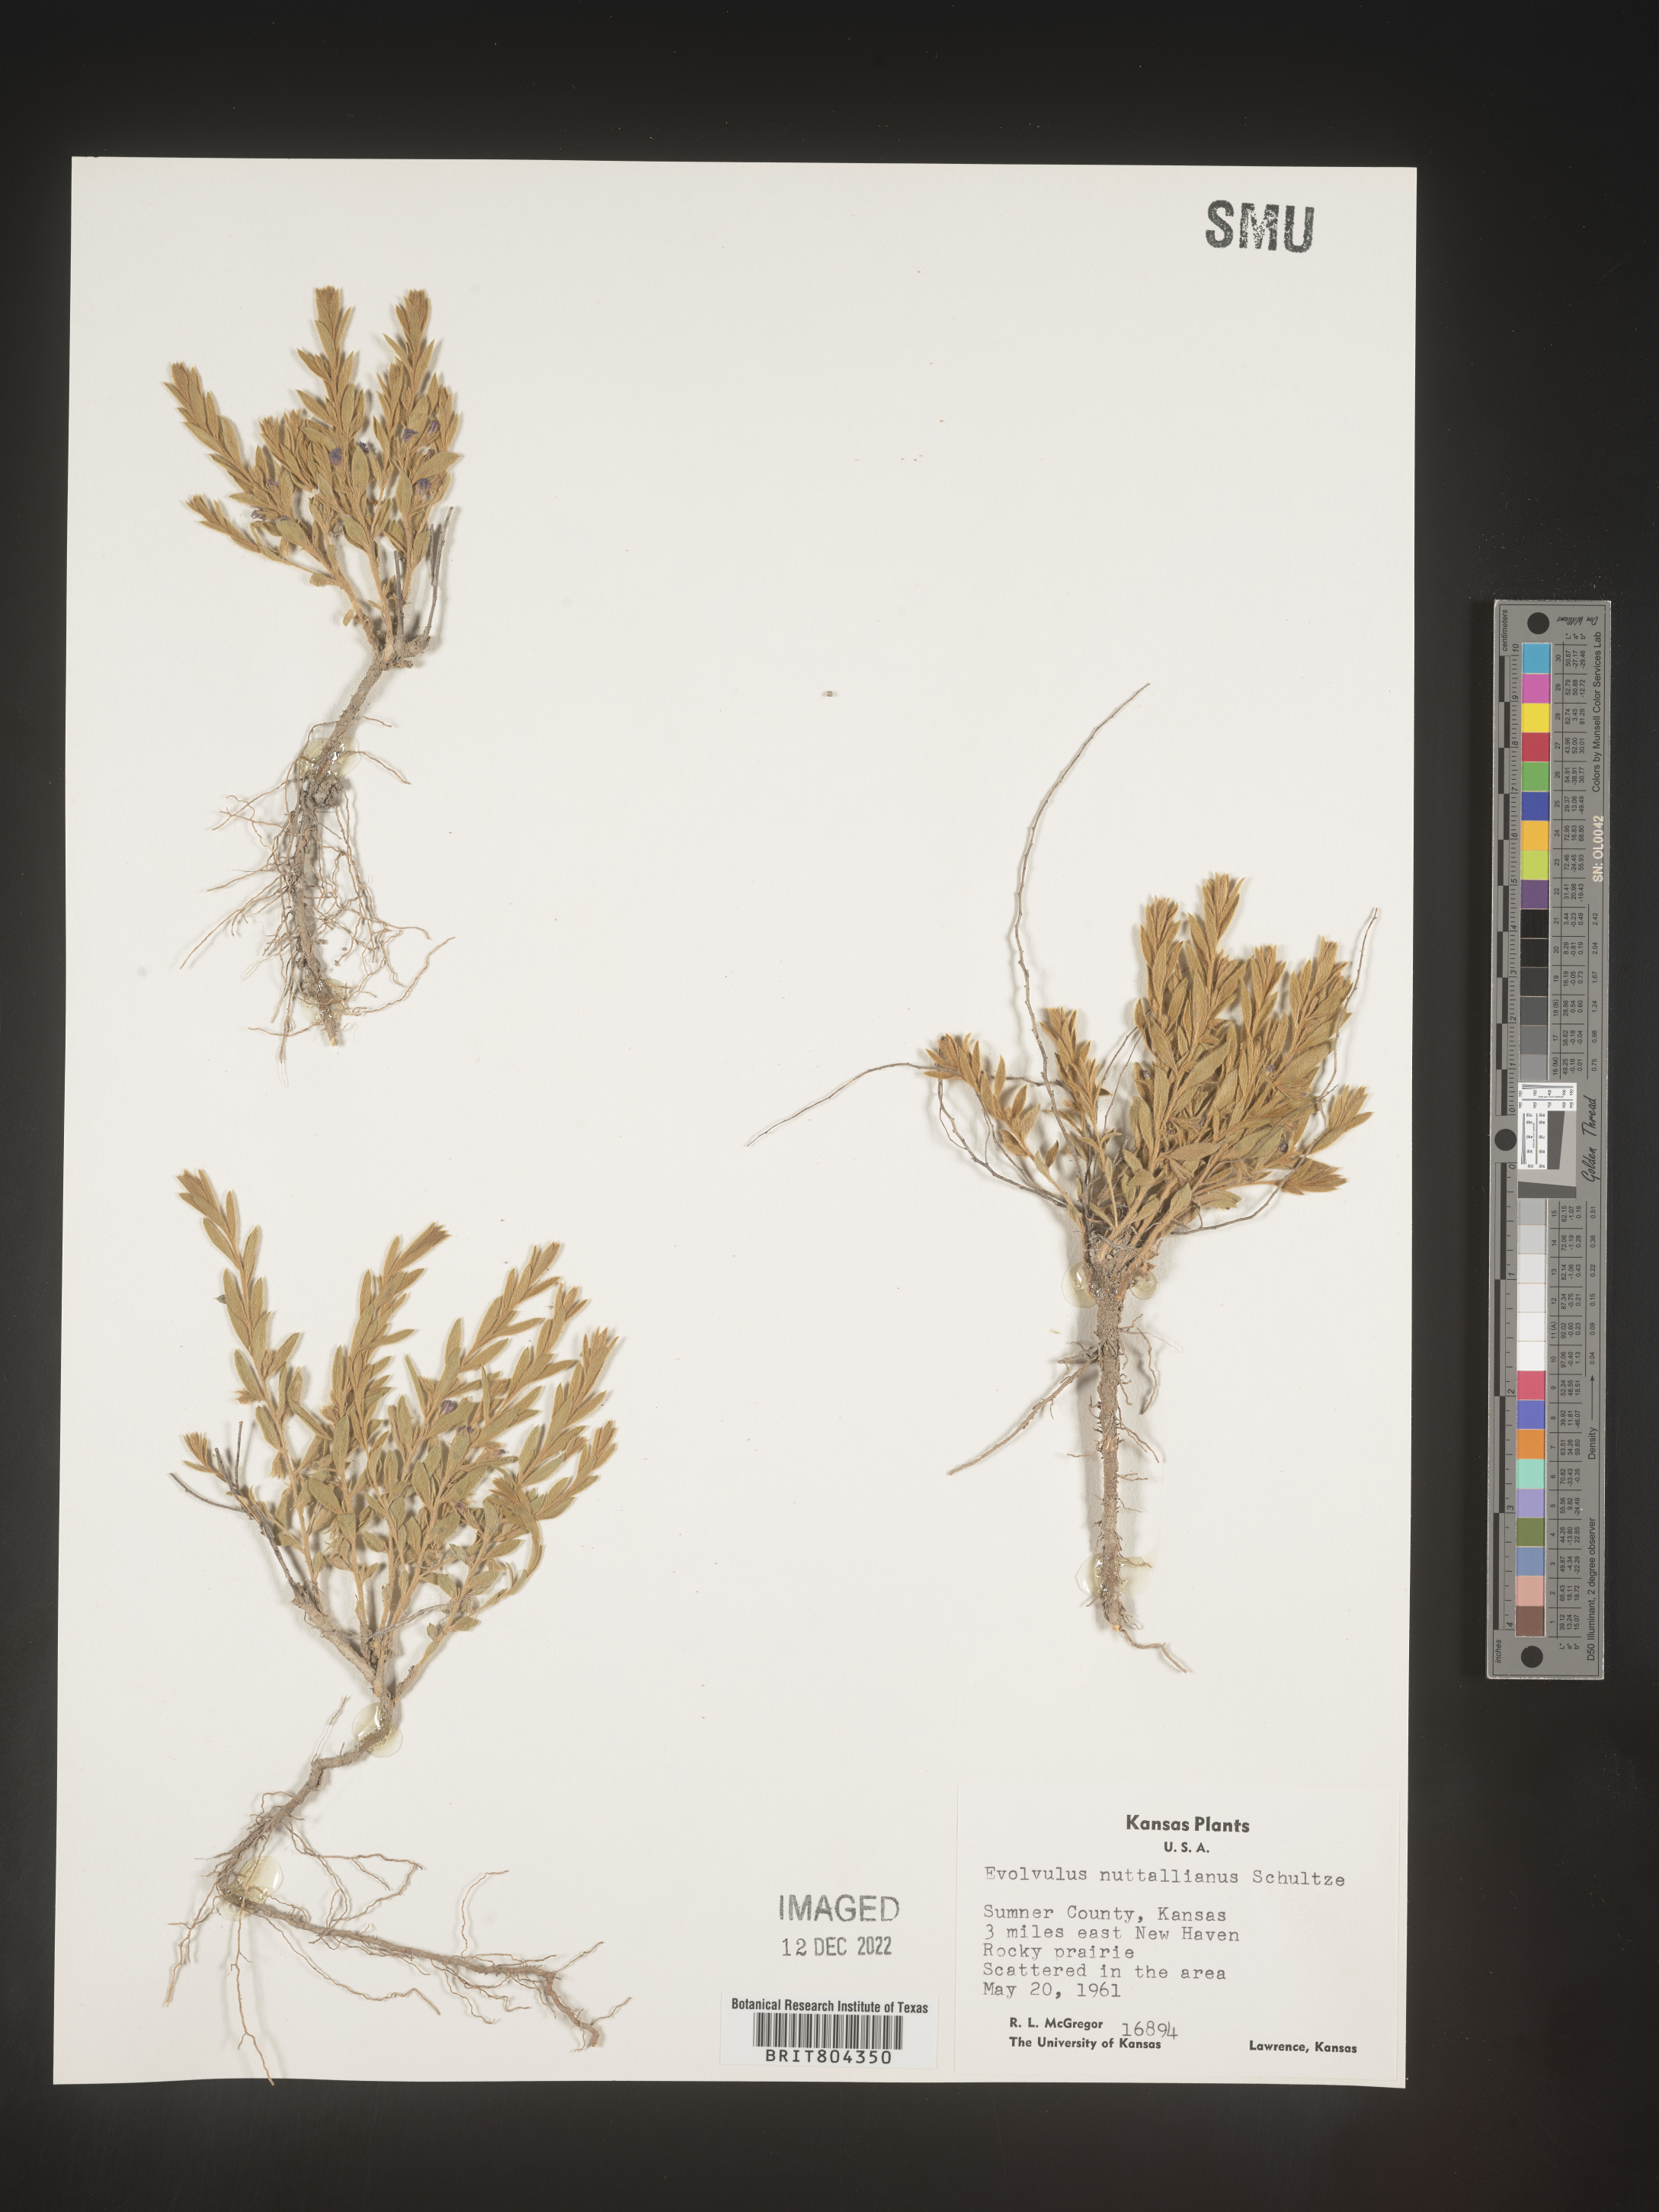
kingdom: Plantae
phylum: Tracheophyta
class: Magnoliopsida
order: Solanales
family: Convolvulaceae
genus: Evolvulus
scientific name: Evolvulus nuttallianus
